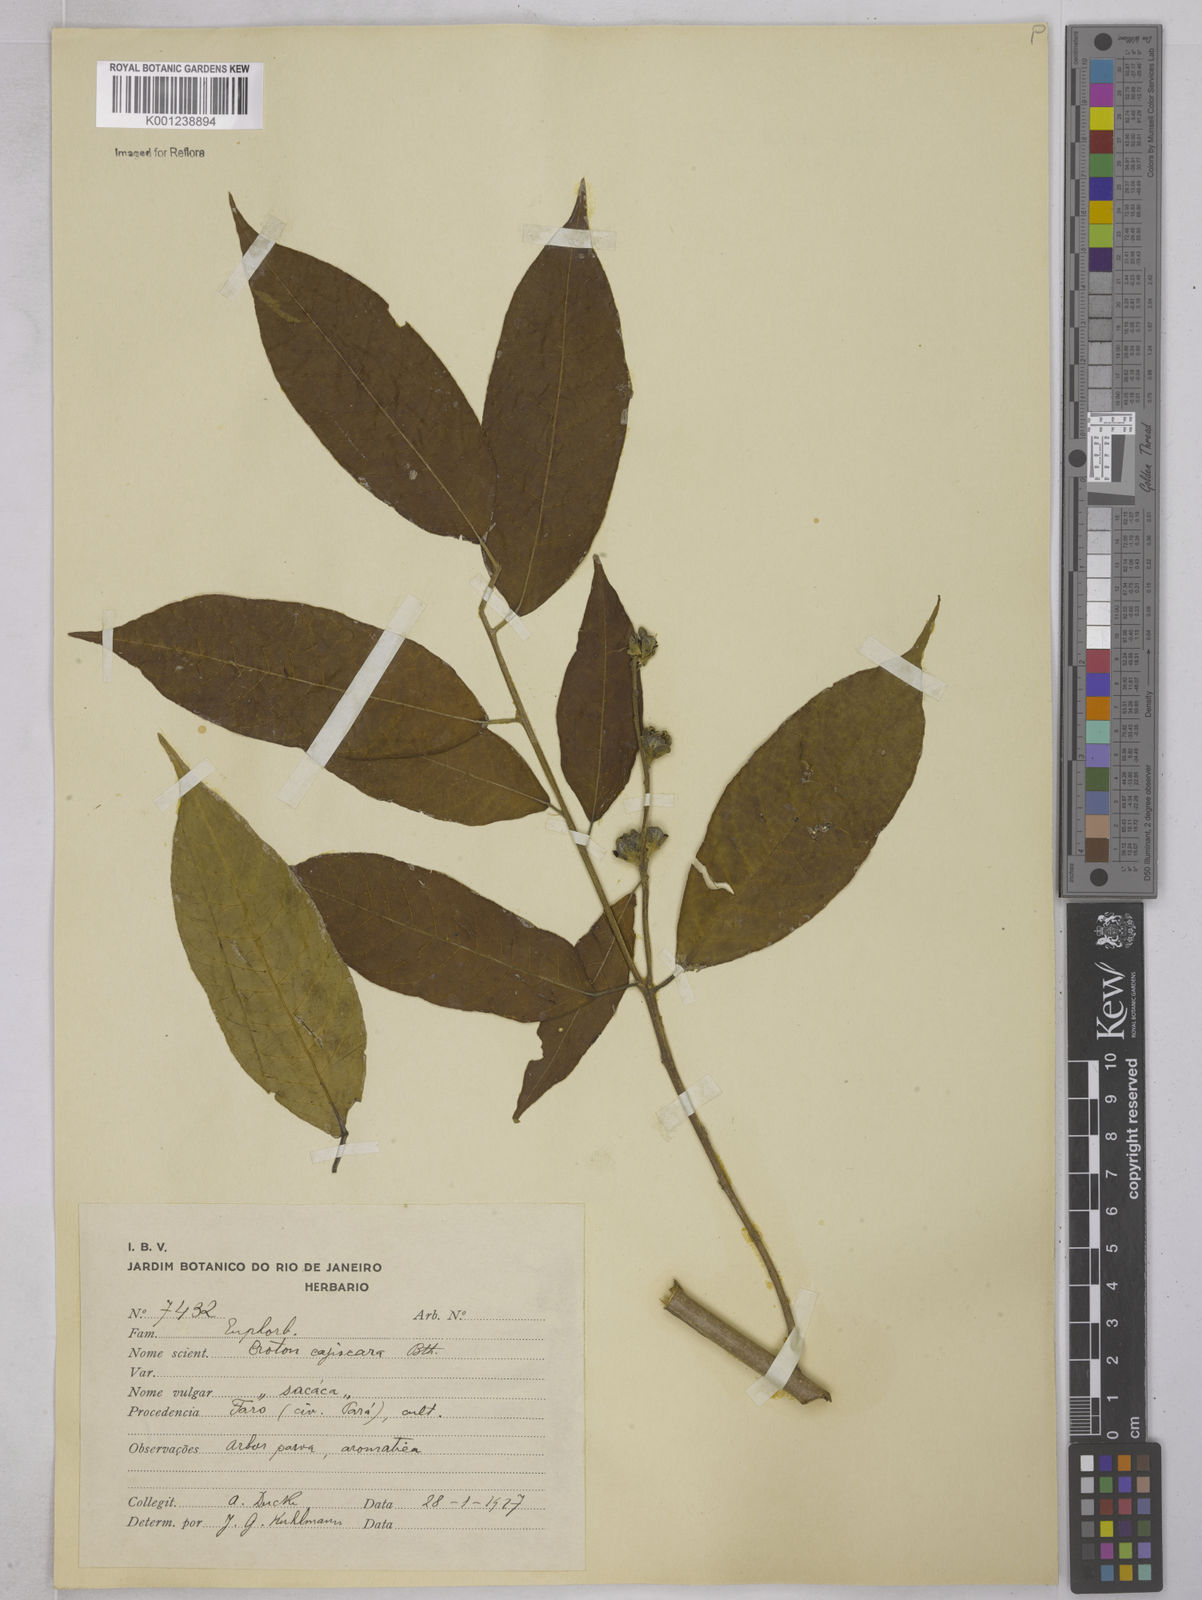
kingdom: Plantae
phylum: Tracheophyta
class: Magnoliopsida
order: Malpighiales
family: Euphorbiaceae
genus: Croton
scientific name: Croton cajucara
